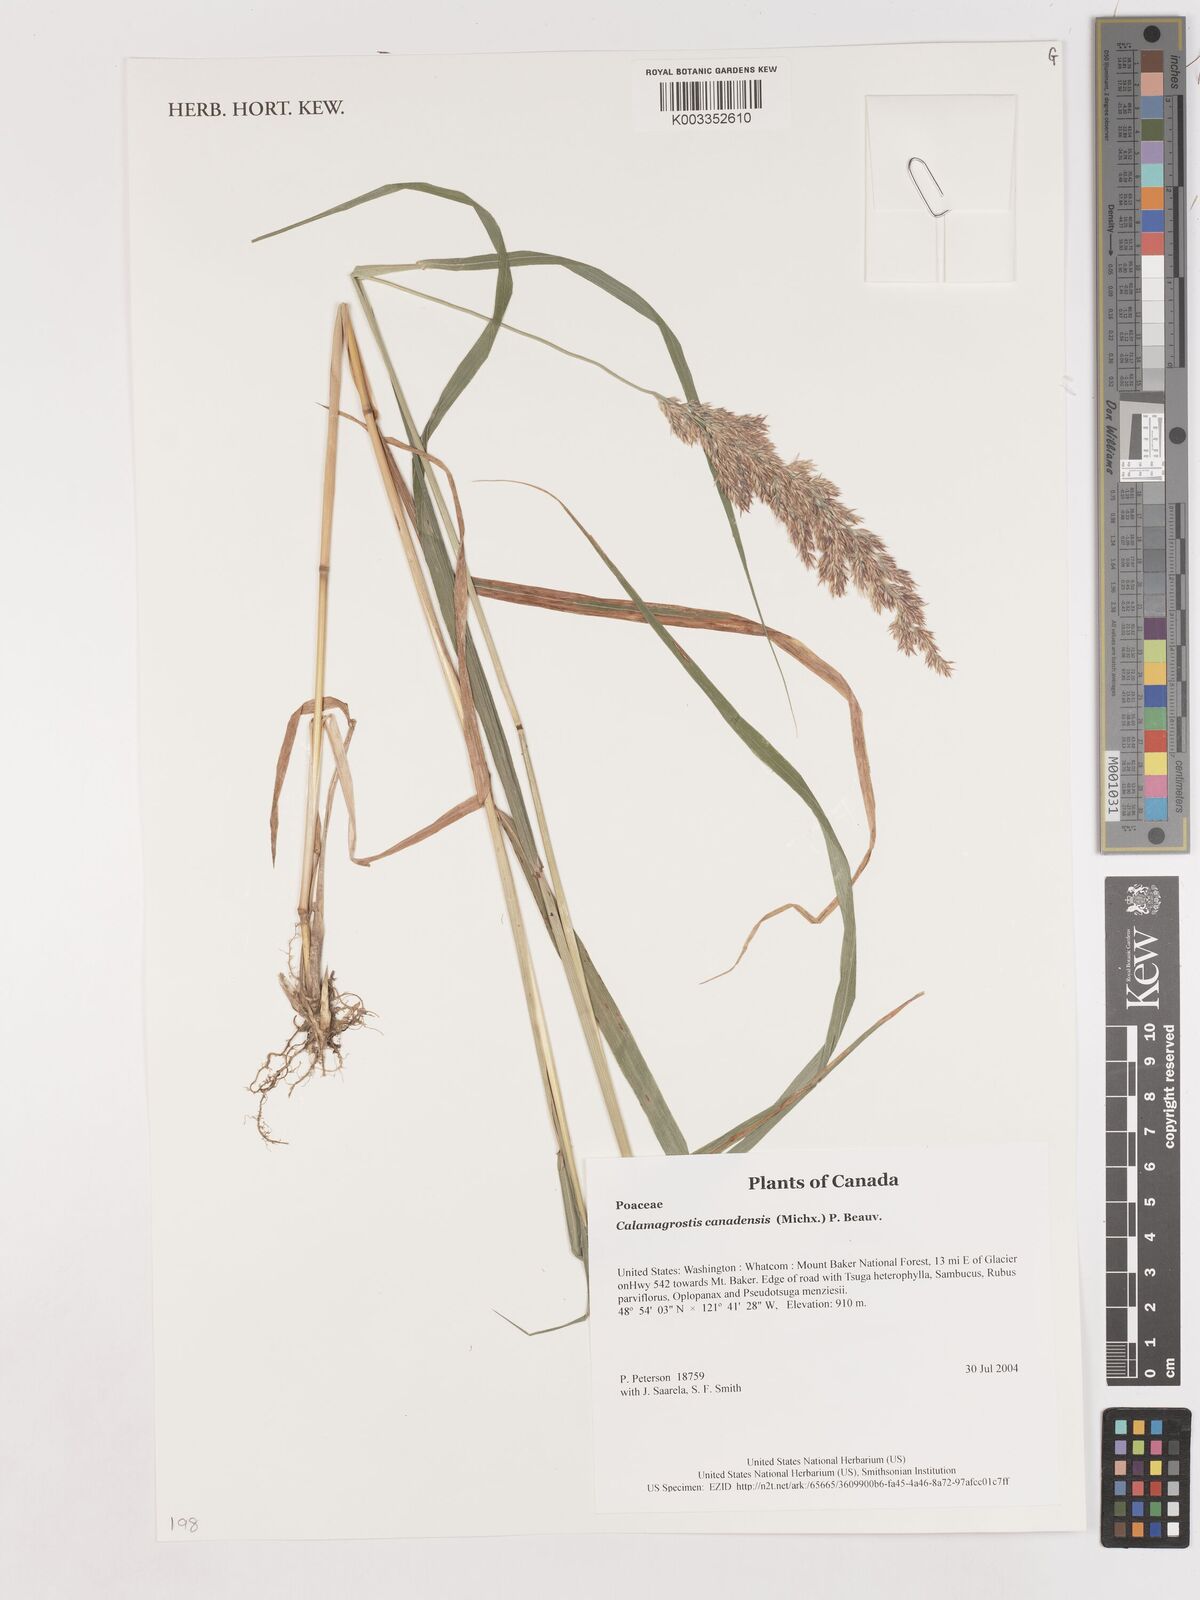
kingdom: Plantae
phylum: Tracheophyta
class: Liliopsida
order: Poales
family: Poaceae
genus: Calamagrostis
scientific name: Calamagrostis canadensis
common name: Canada bluejoint
